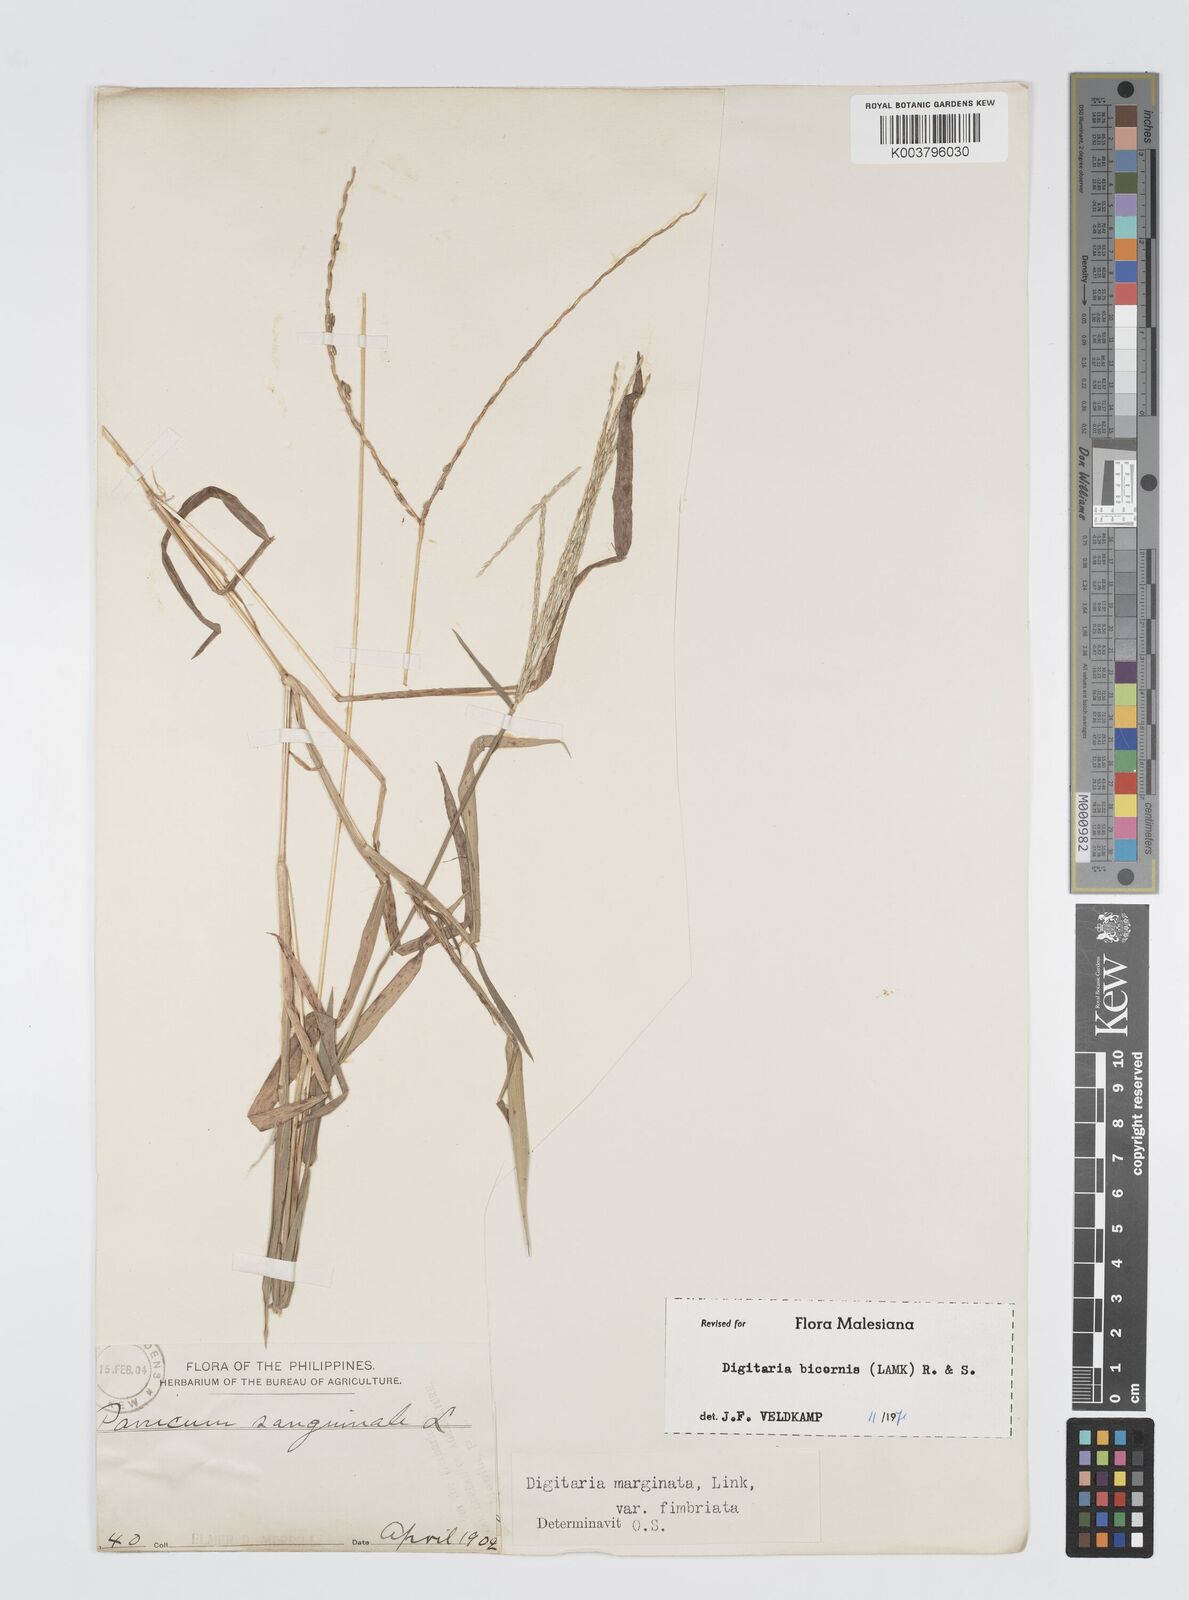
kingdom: Plantae
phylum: Tracheophyta
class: Liliopsida
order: Poales
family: Poaceae
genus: Digitaria
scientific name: Digitaria ciliaris
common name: Tropical finger-grass
